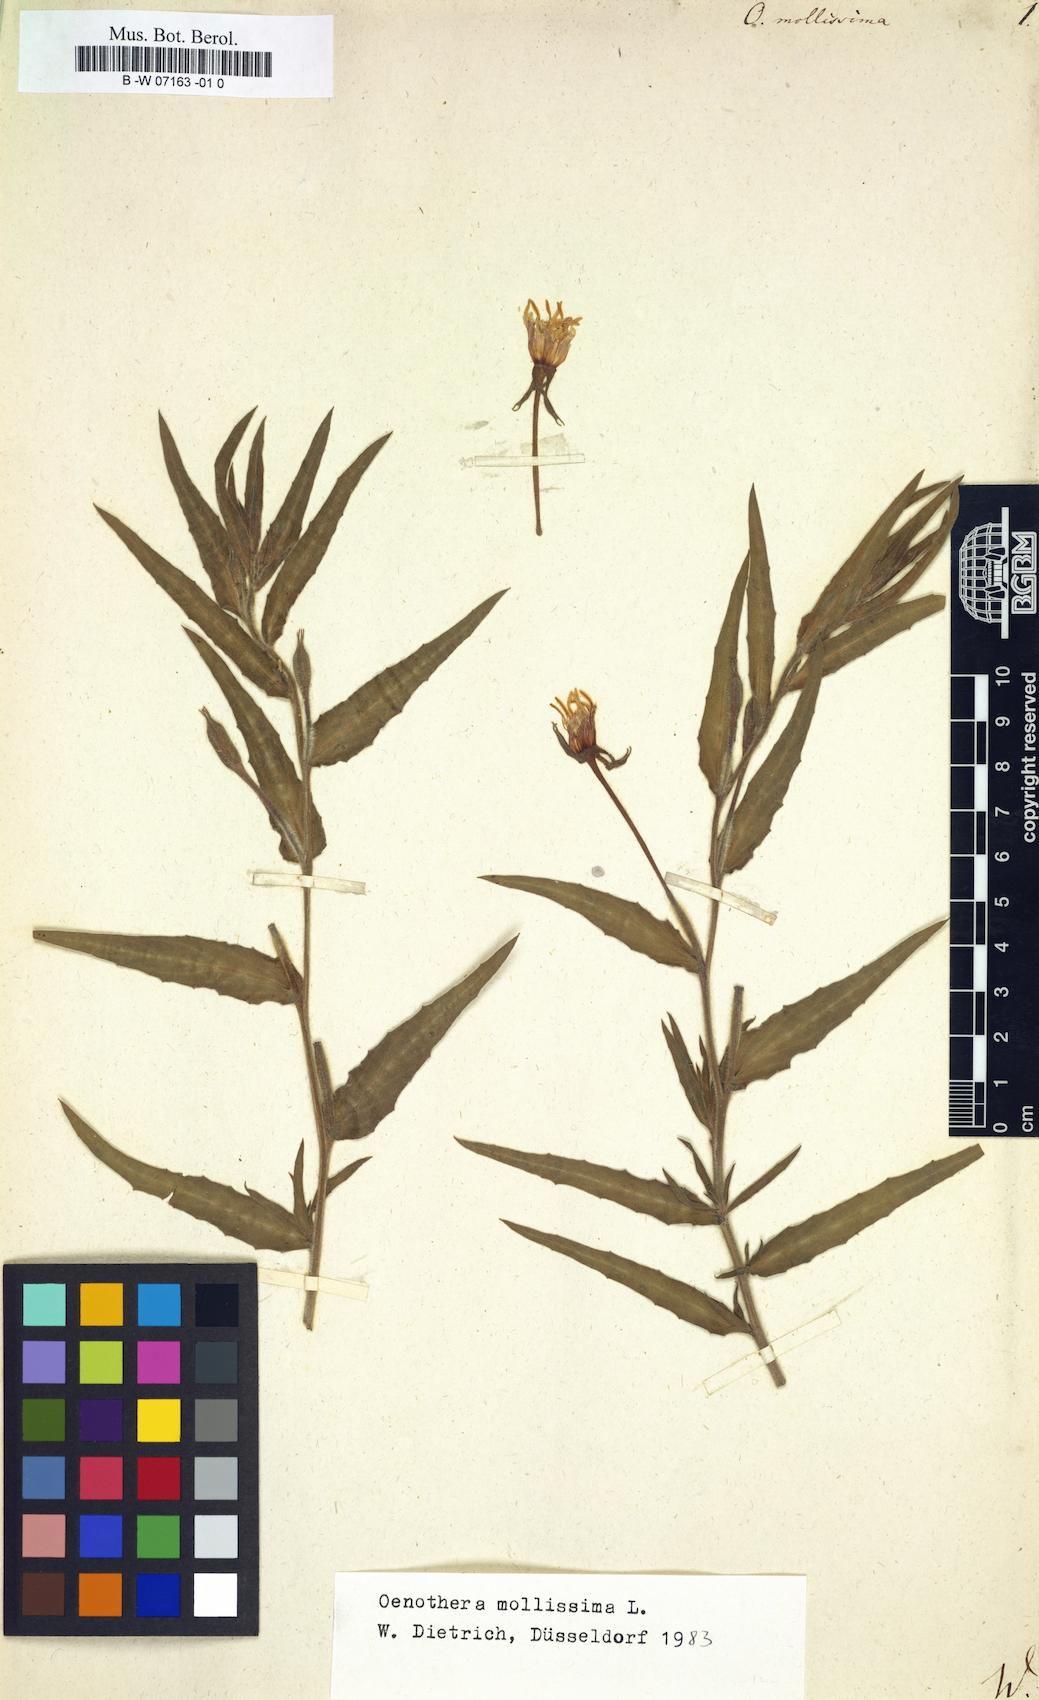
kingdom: Plantae
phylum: Tracheophyta
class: Magnoliopsida
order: Myrtales
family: Onagraceae
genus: Oenothera
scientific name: Oenothera mollissima
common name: Argentine evening primrose
